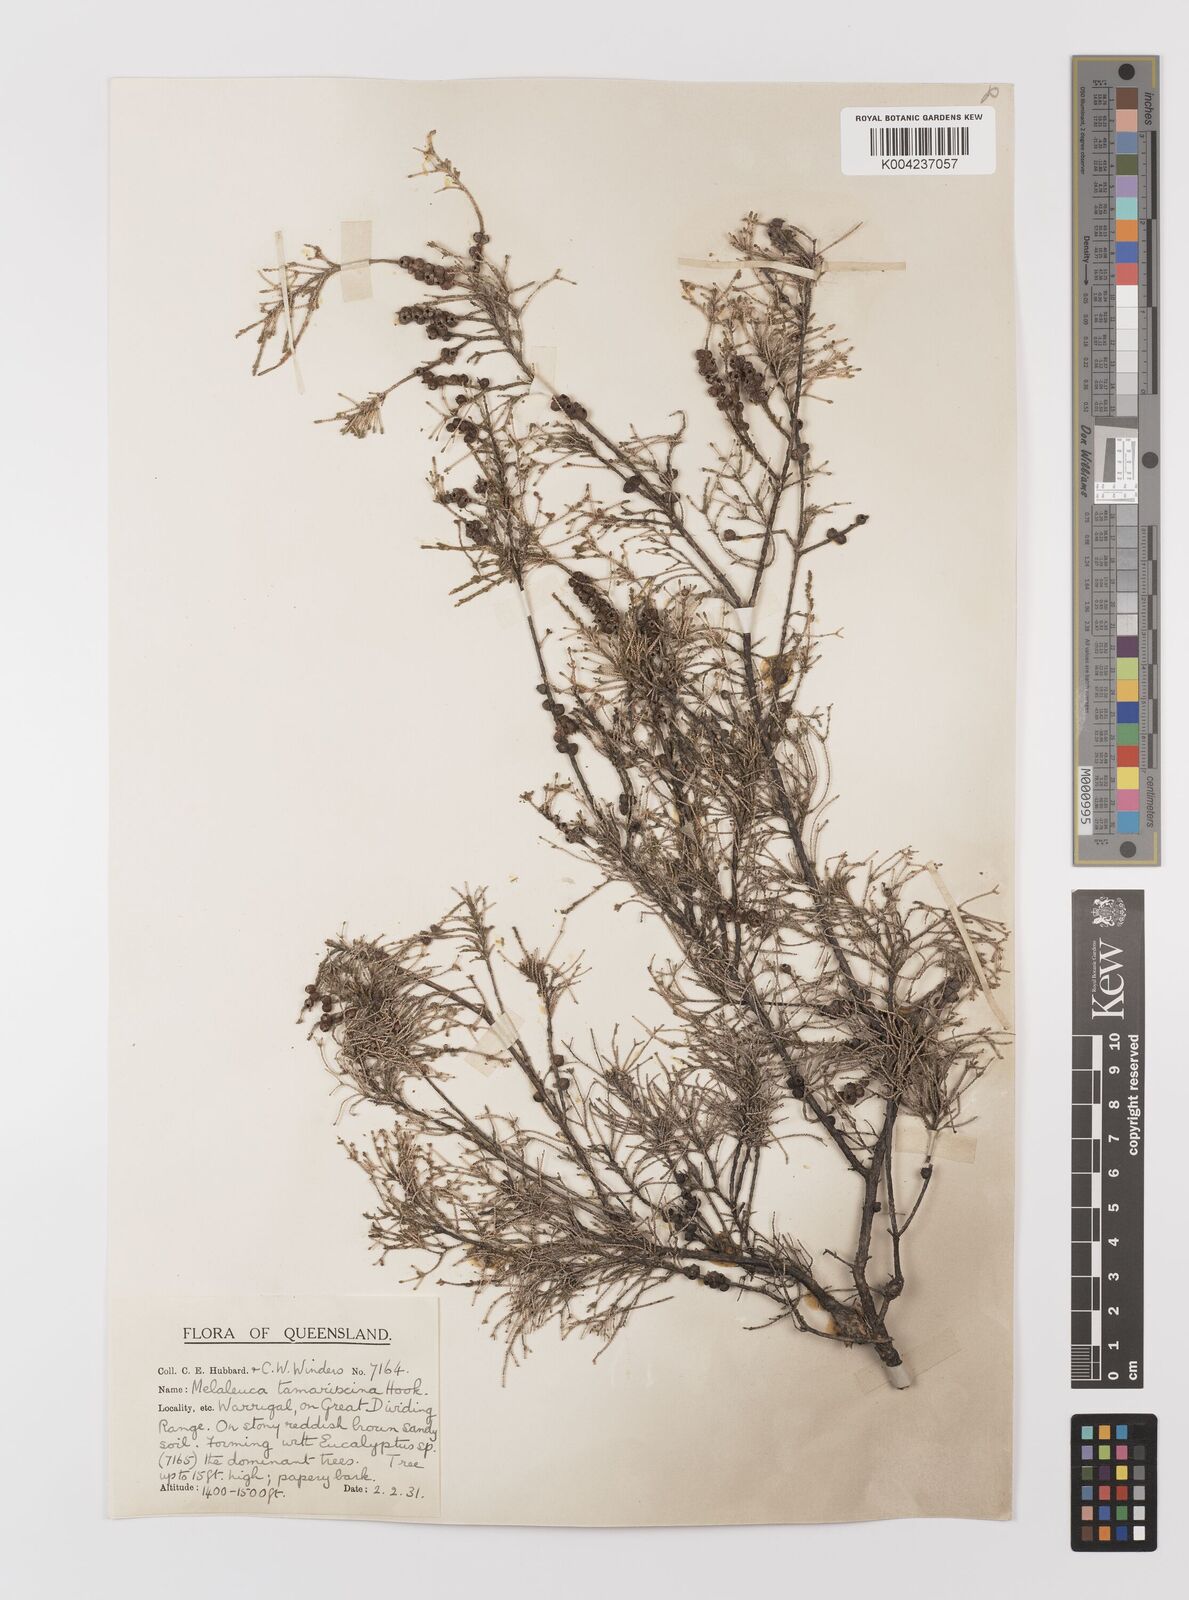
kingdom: Plantae
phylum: Tracheophyta
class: Magnoliopsida
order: Myrtales
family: Myrtaceae
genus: Melaleuca
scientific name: Melaleuca tamariscina
